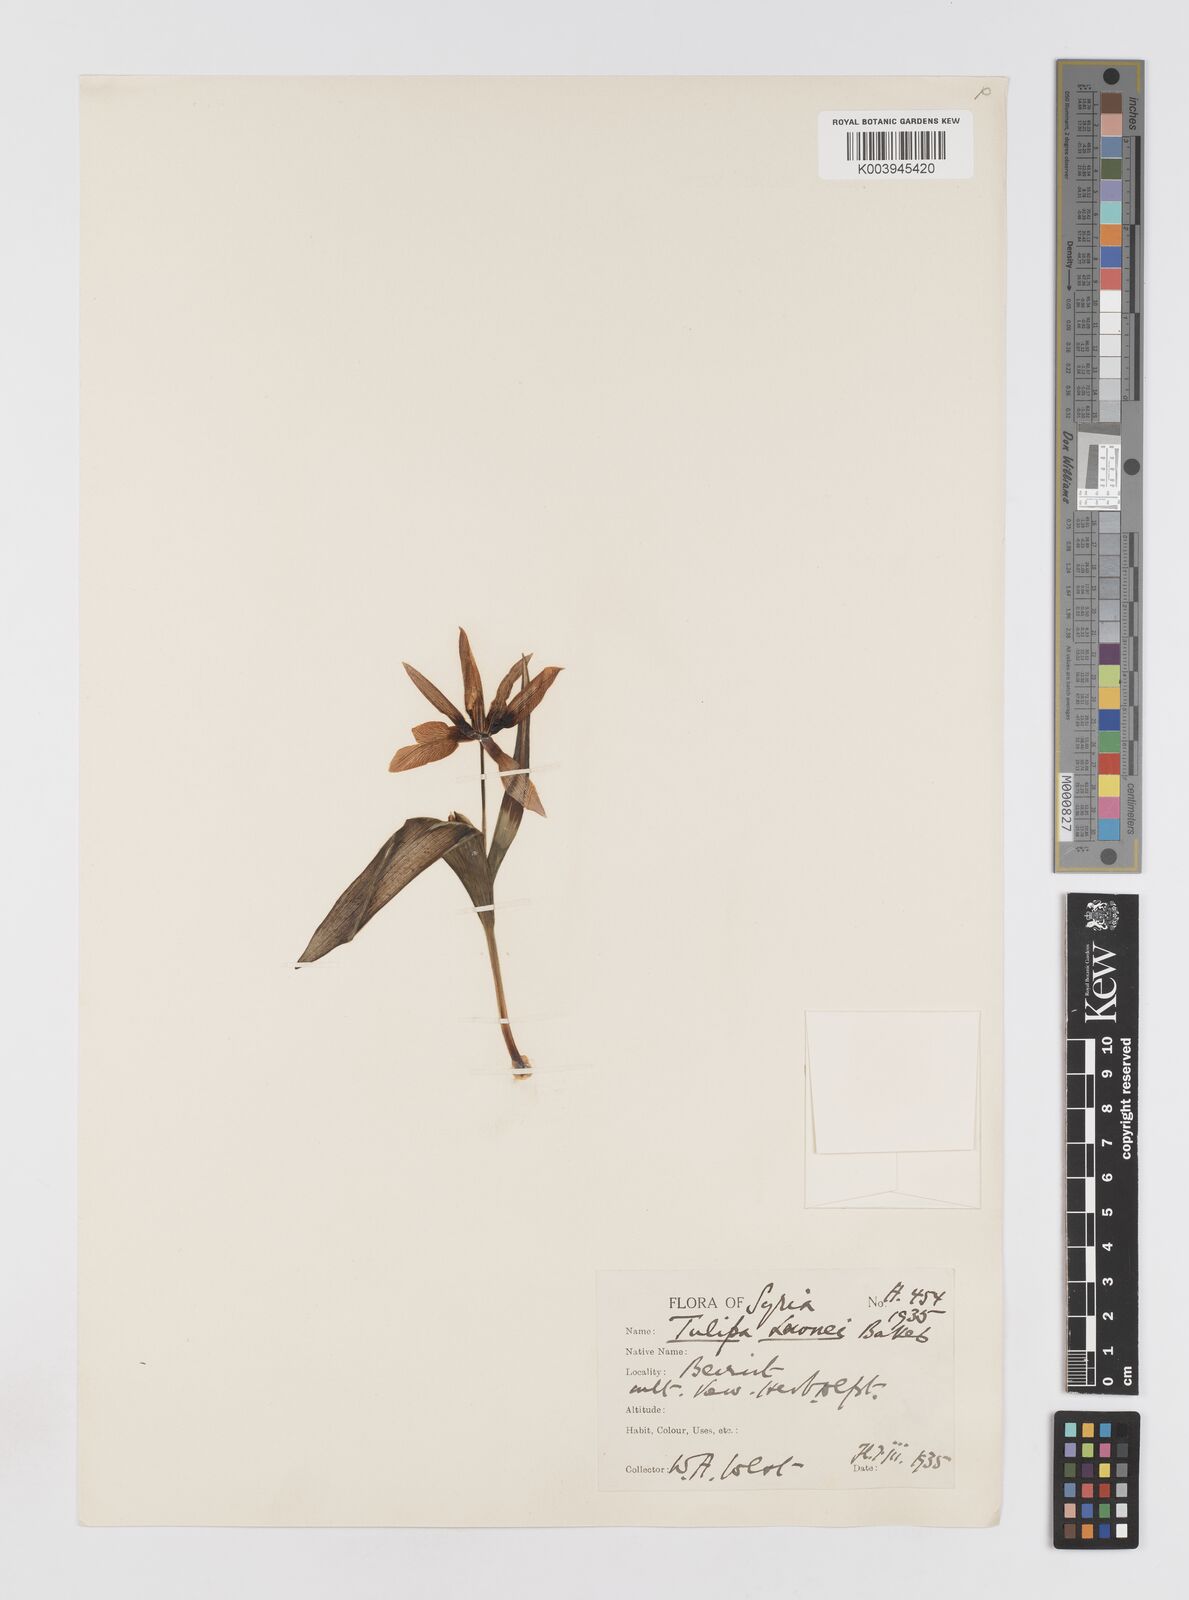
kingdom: Plantae
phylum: Tracheophyta
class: Liliopsida
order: Liliales
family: Liliaceae
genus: Tulipa
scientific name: Tulipa humilis
